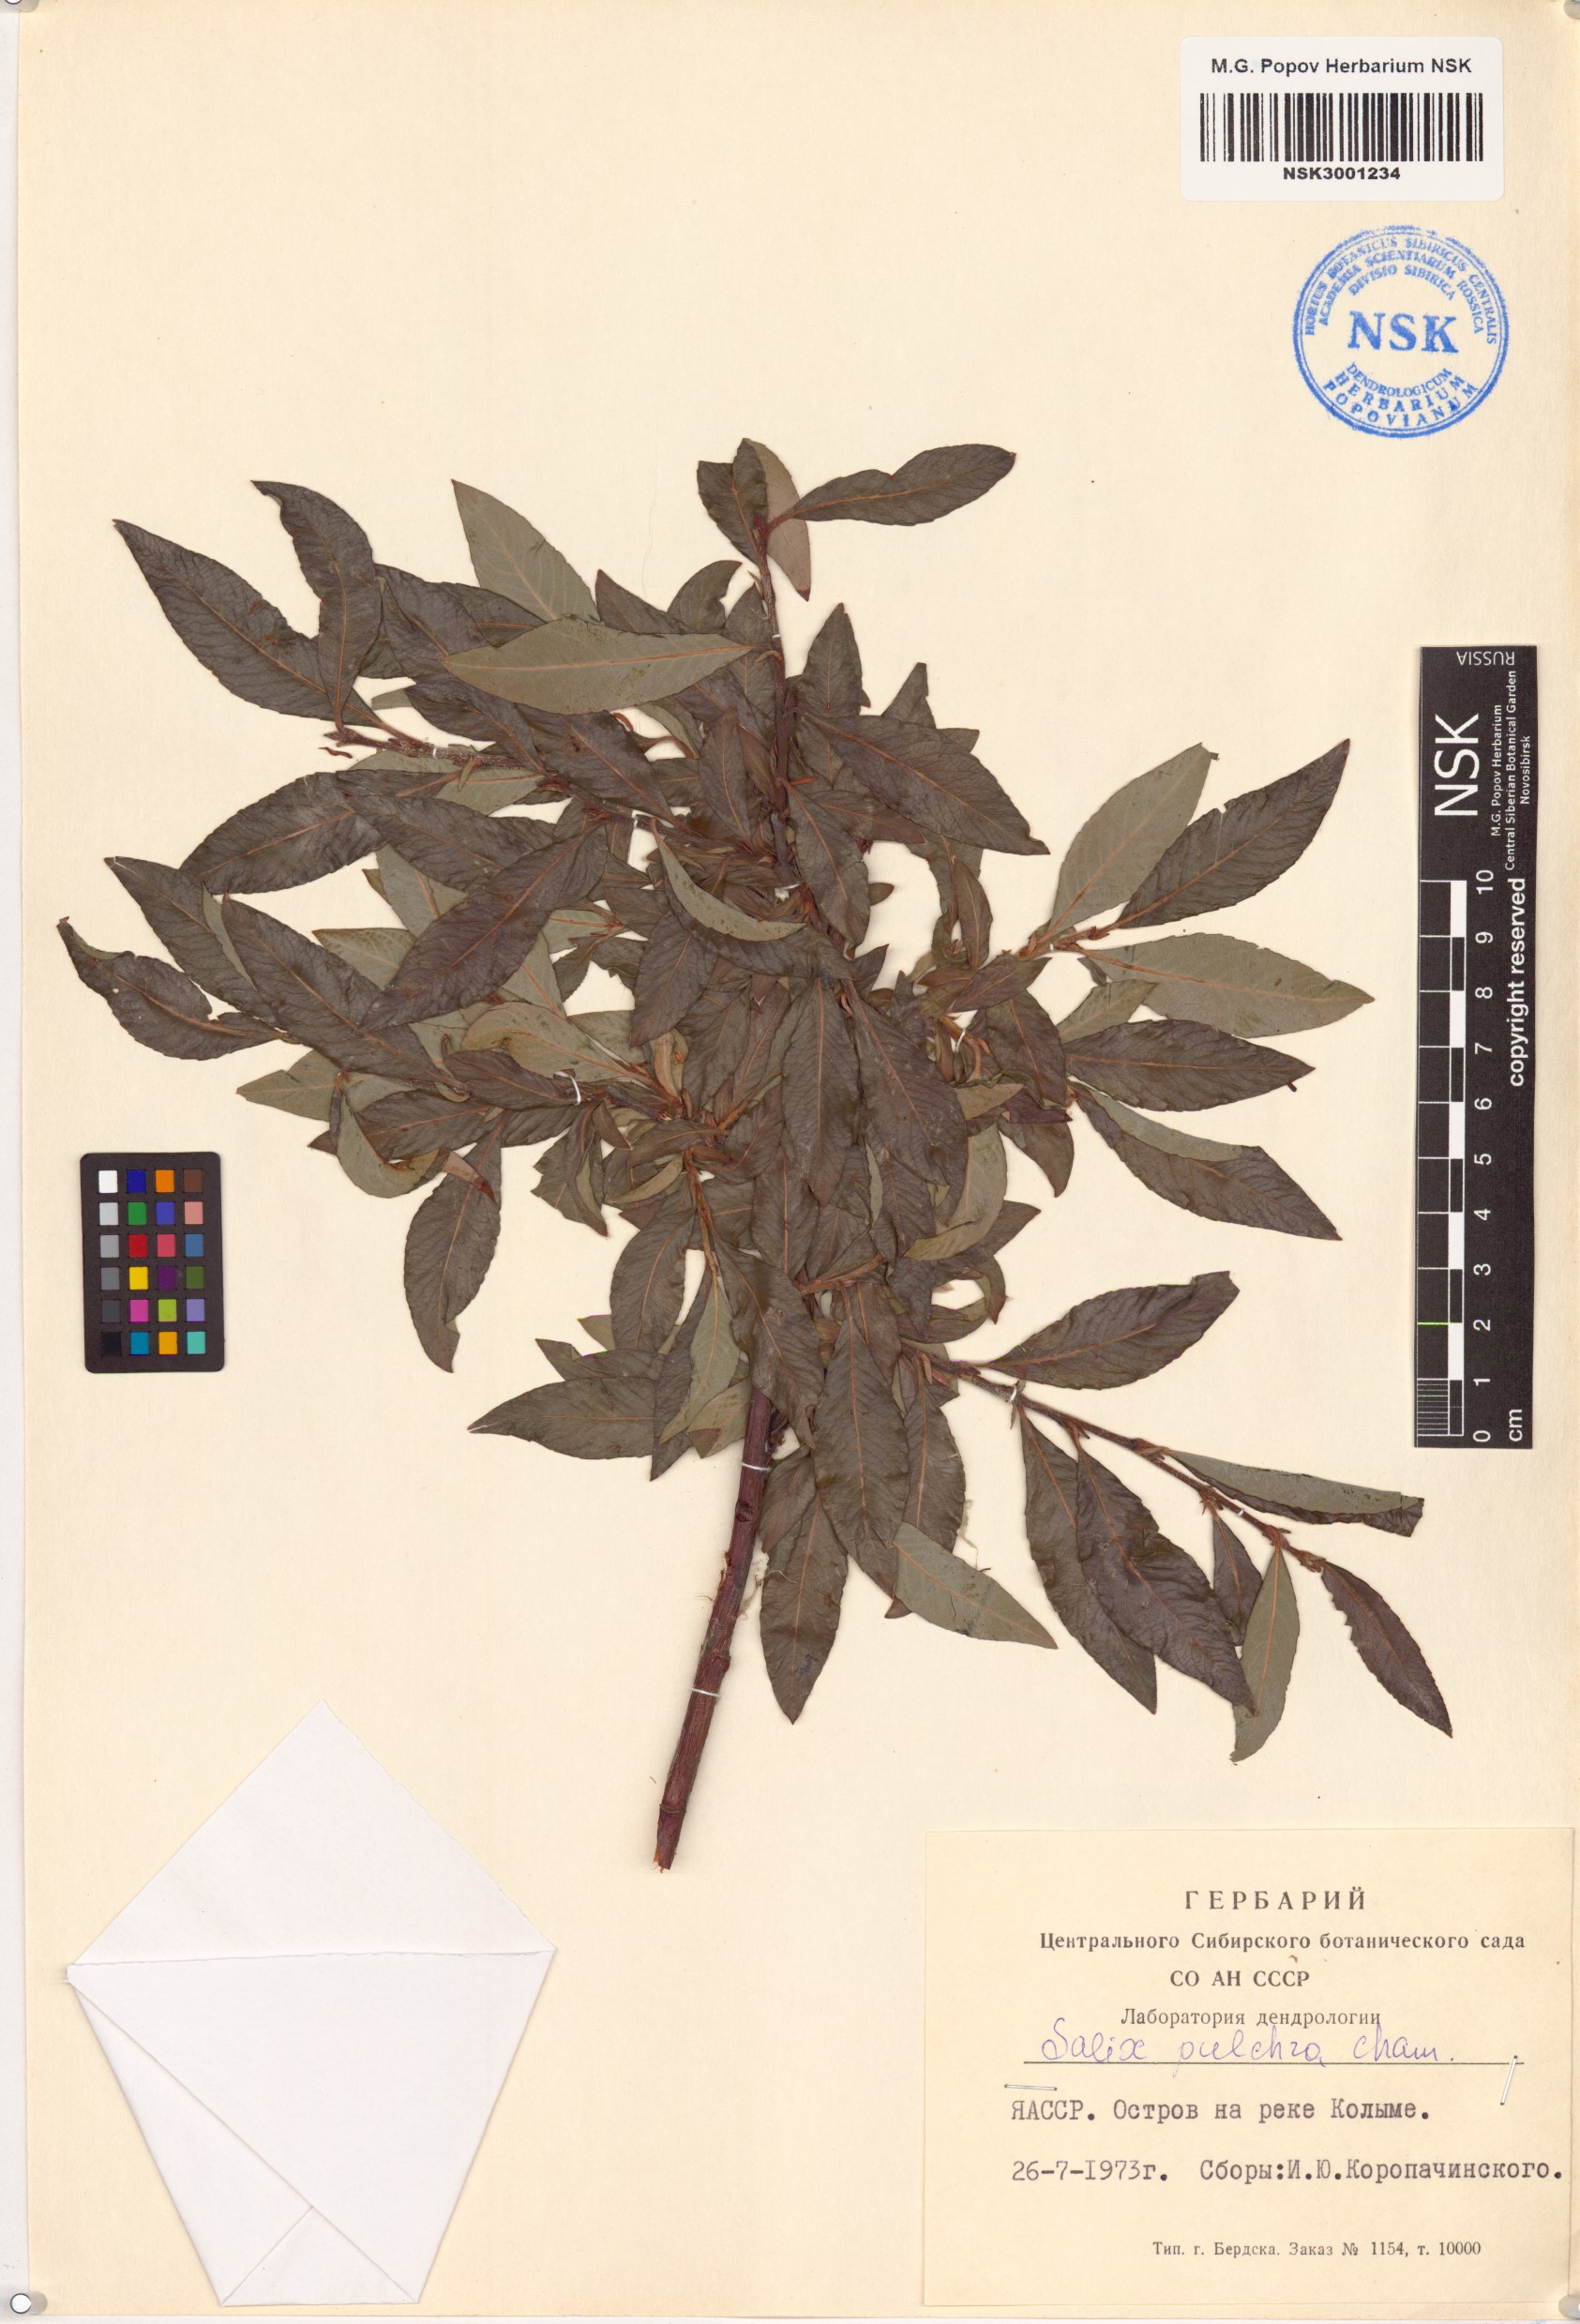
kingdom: Plantae
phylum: Tracheophyta
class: Magnoliopsida
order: Malpighiales
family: Salicaceae
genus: Salix
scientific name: Salix pulchra
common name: Diamond-leaved willow
